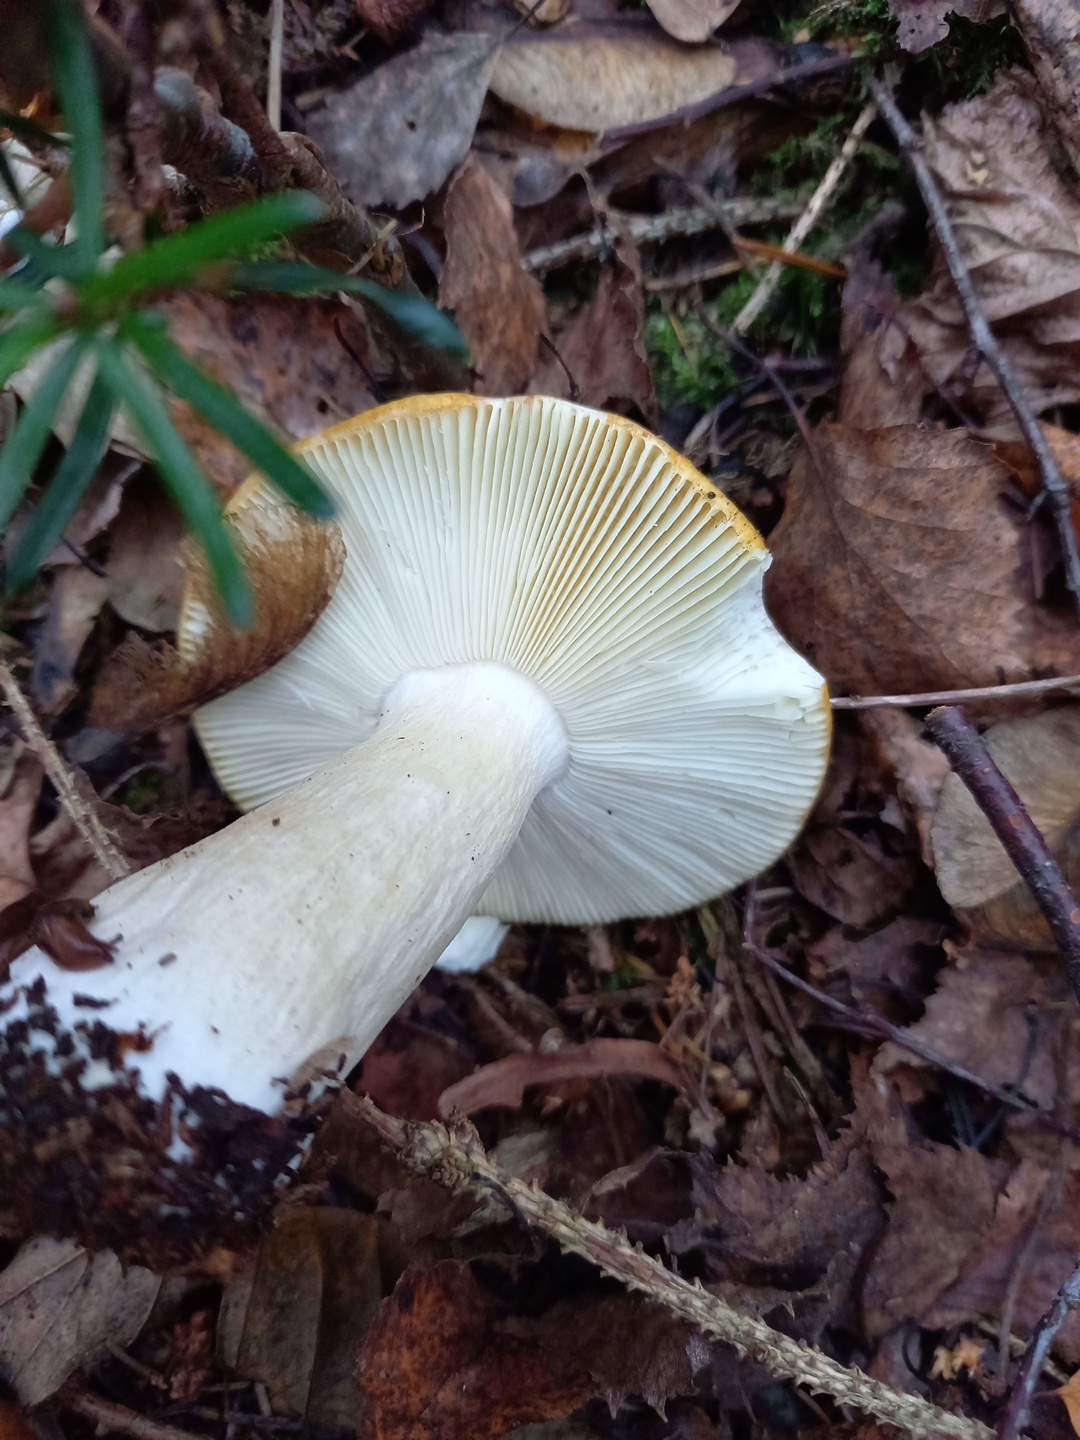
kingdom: Fungi
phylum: Basidiomycota
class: Agaricomycetes
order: Russulales
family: Russulaceae
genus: Russula
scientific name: Russula ochroleuca
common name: okkergul skørhat
